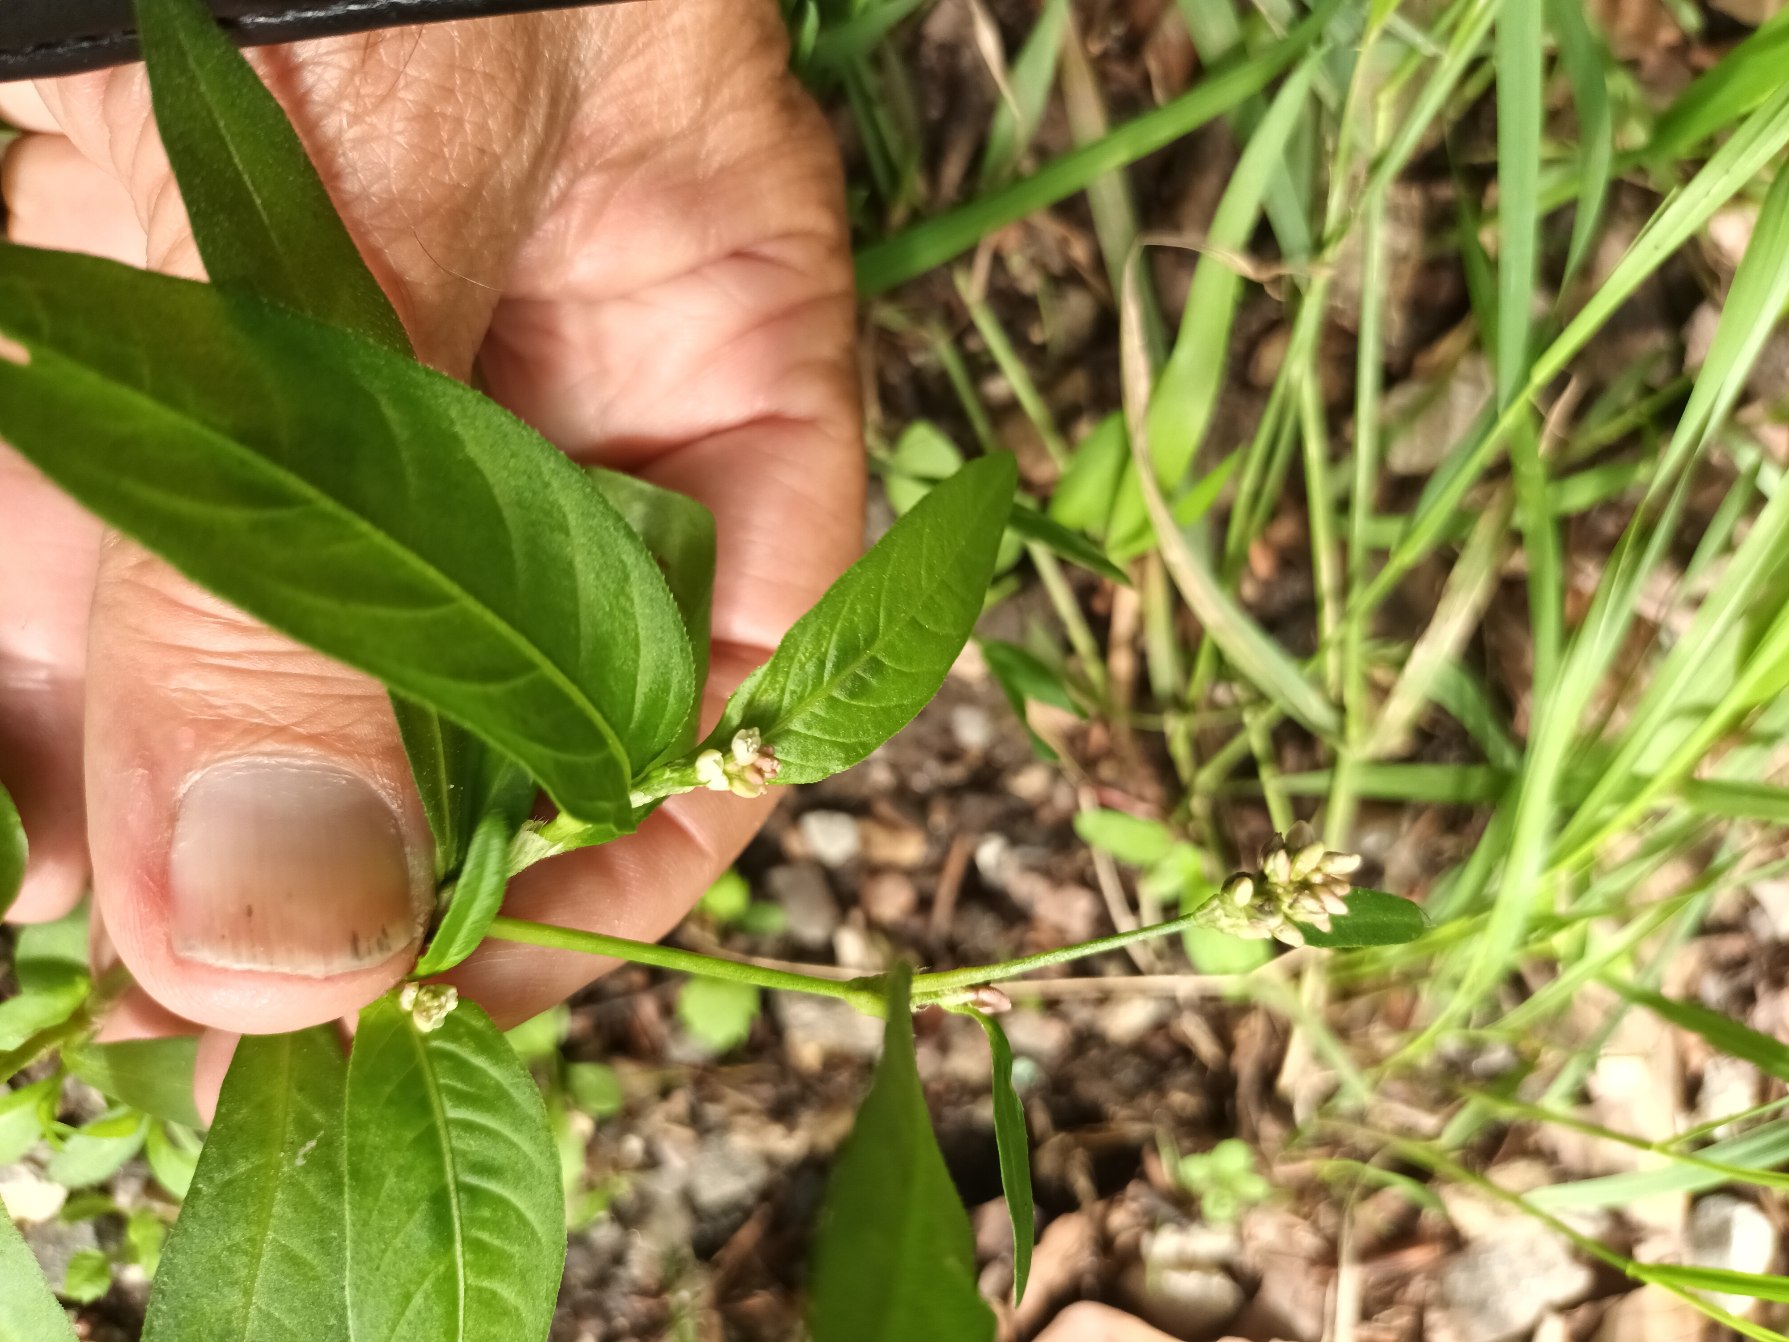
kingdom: Plantae
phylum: Tracheophyta
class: Magnoliopsida
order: Caryophyllales
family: Polygonaceae
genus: Persicaria
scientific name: Persicaria maculosa
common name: Fersken-pileurt
